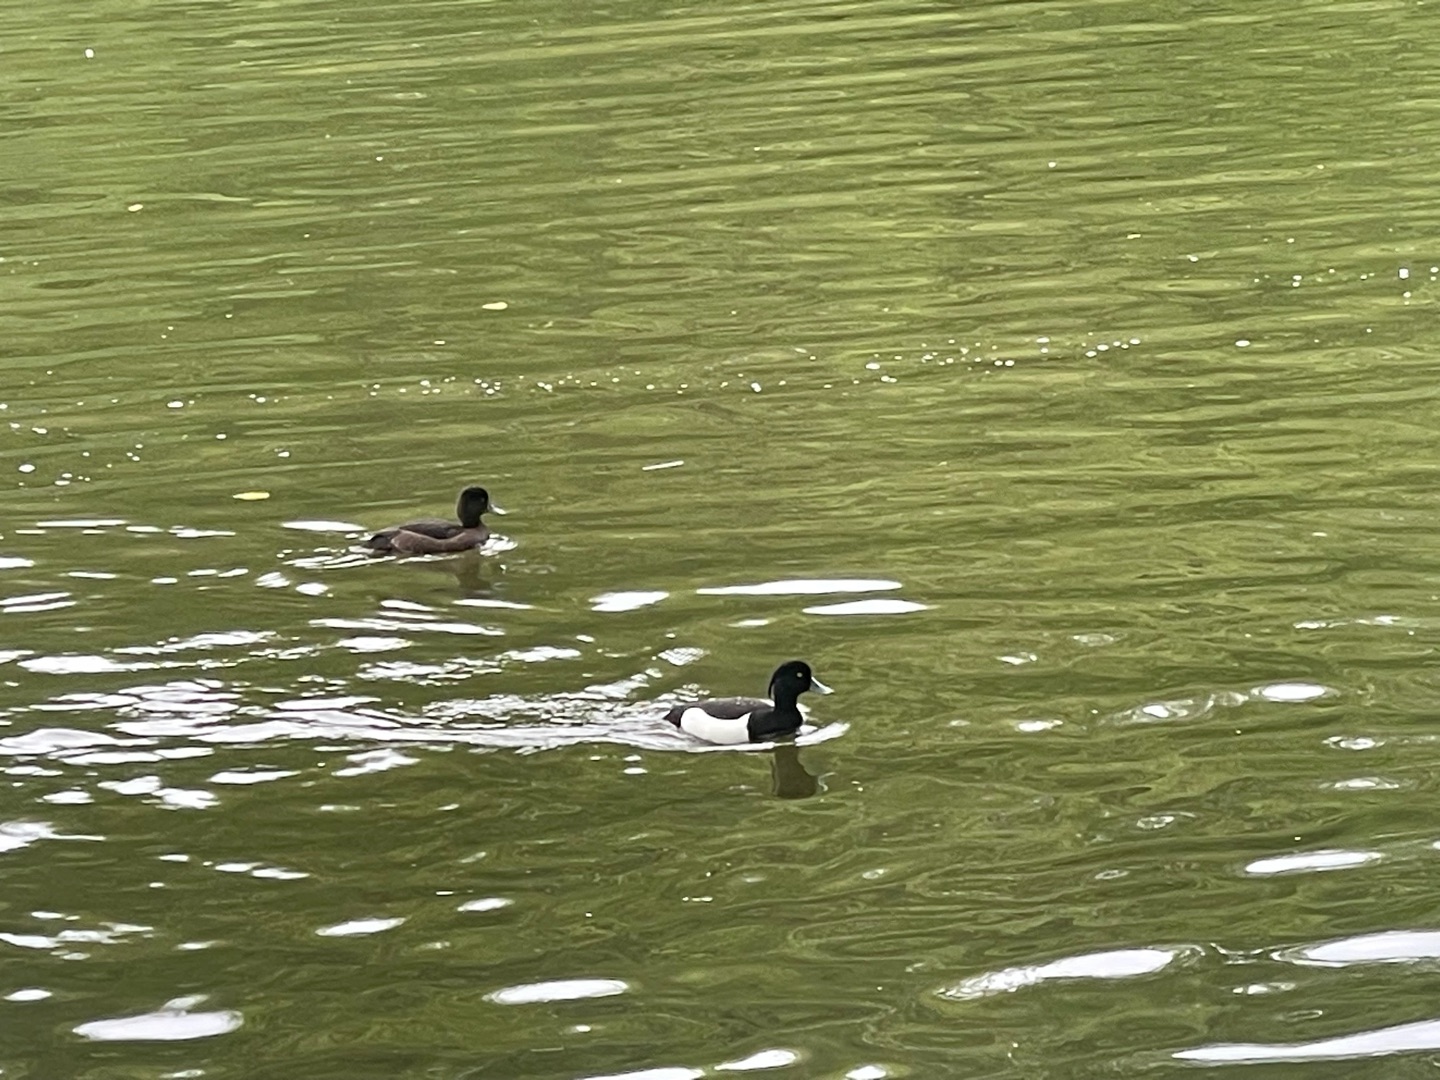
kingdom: Animalia
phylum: Chordata
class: Aves
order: Anseriformes
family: Anatidae
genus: Aythya
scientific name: Aythya fuligula
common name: Troldand
